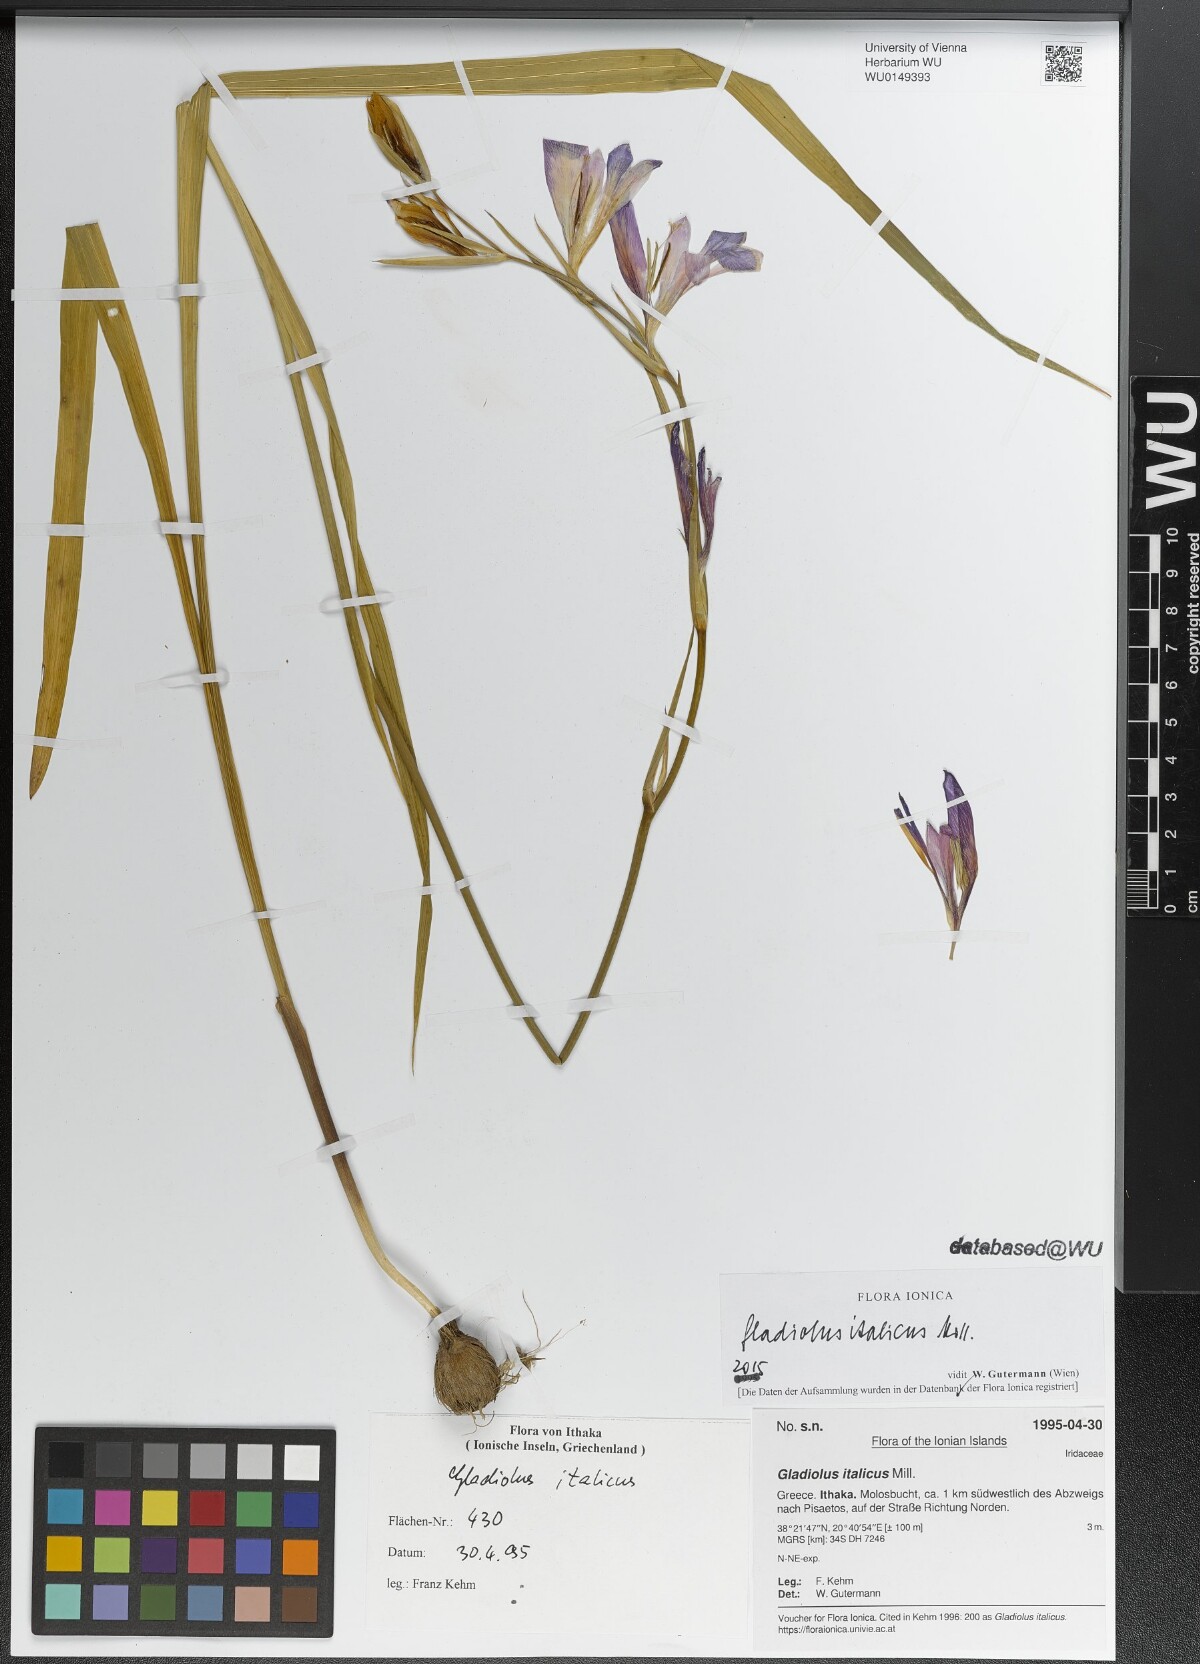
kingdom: Plantae
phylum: Tracheophyta
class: Liliopsida
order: Asparagales
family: Iridaceae
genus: Gladiolus
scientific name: Gladiolus italicus
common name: Field gladiolus
